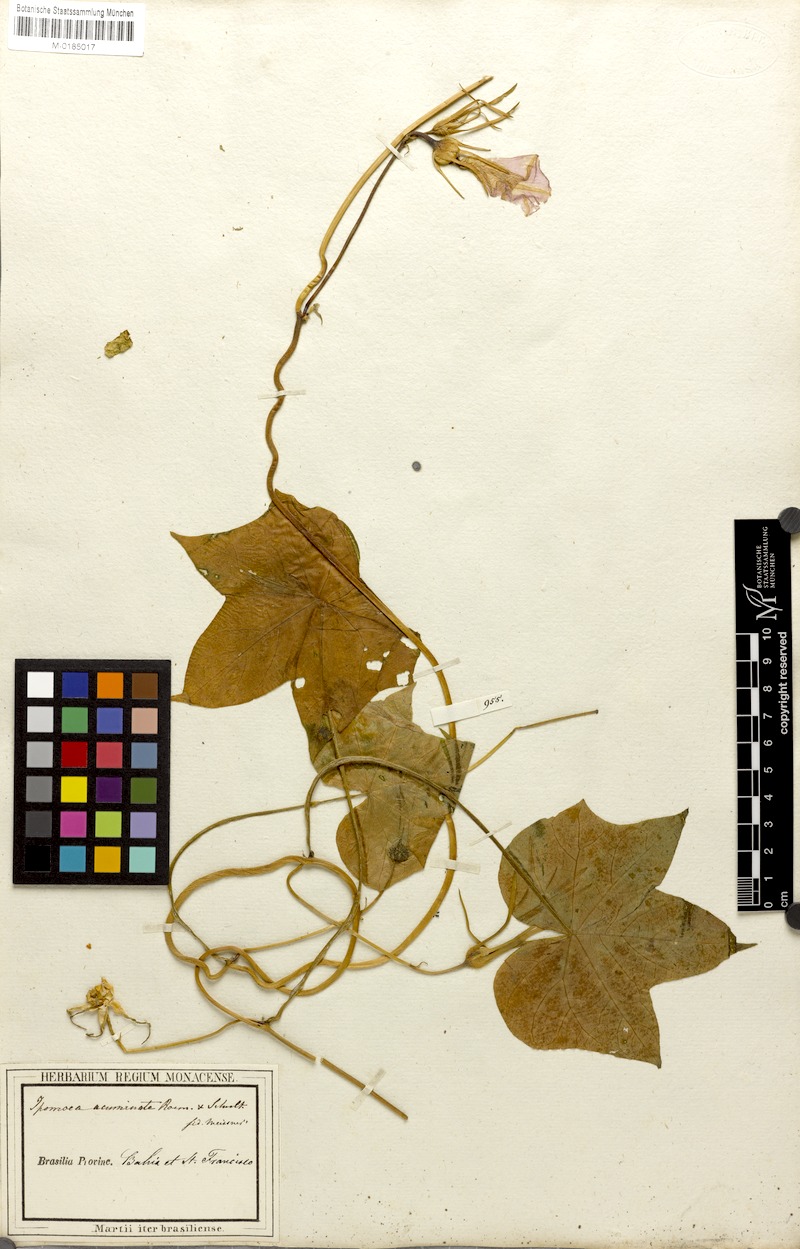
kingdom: Plantae
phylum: Tracheophyta
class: Magnoliopsida
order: Solanales
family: Convolvulaceae
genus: Ipomoea
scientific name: Ipomoea indica
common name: Blue dawnflower
